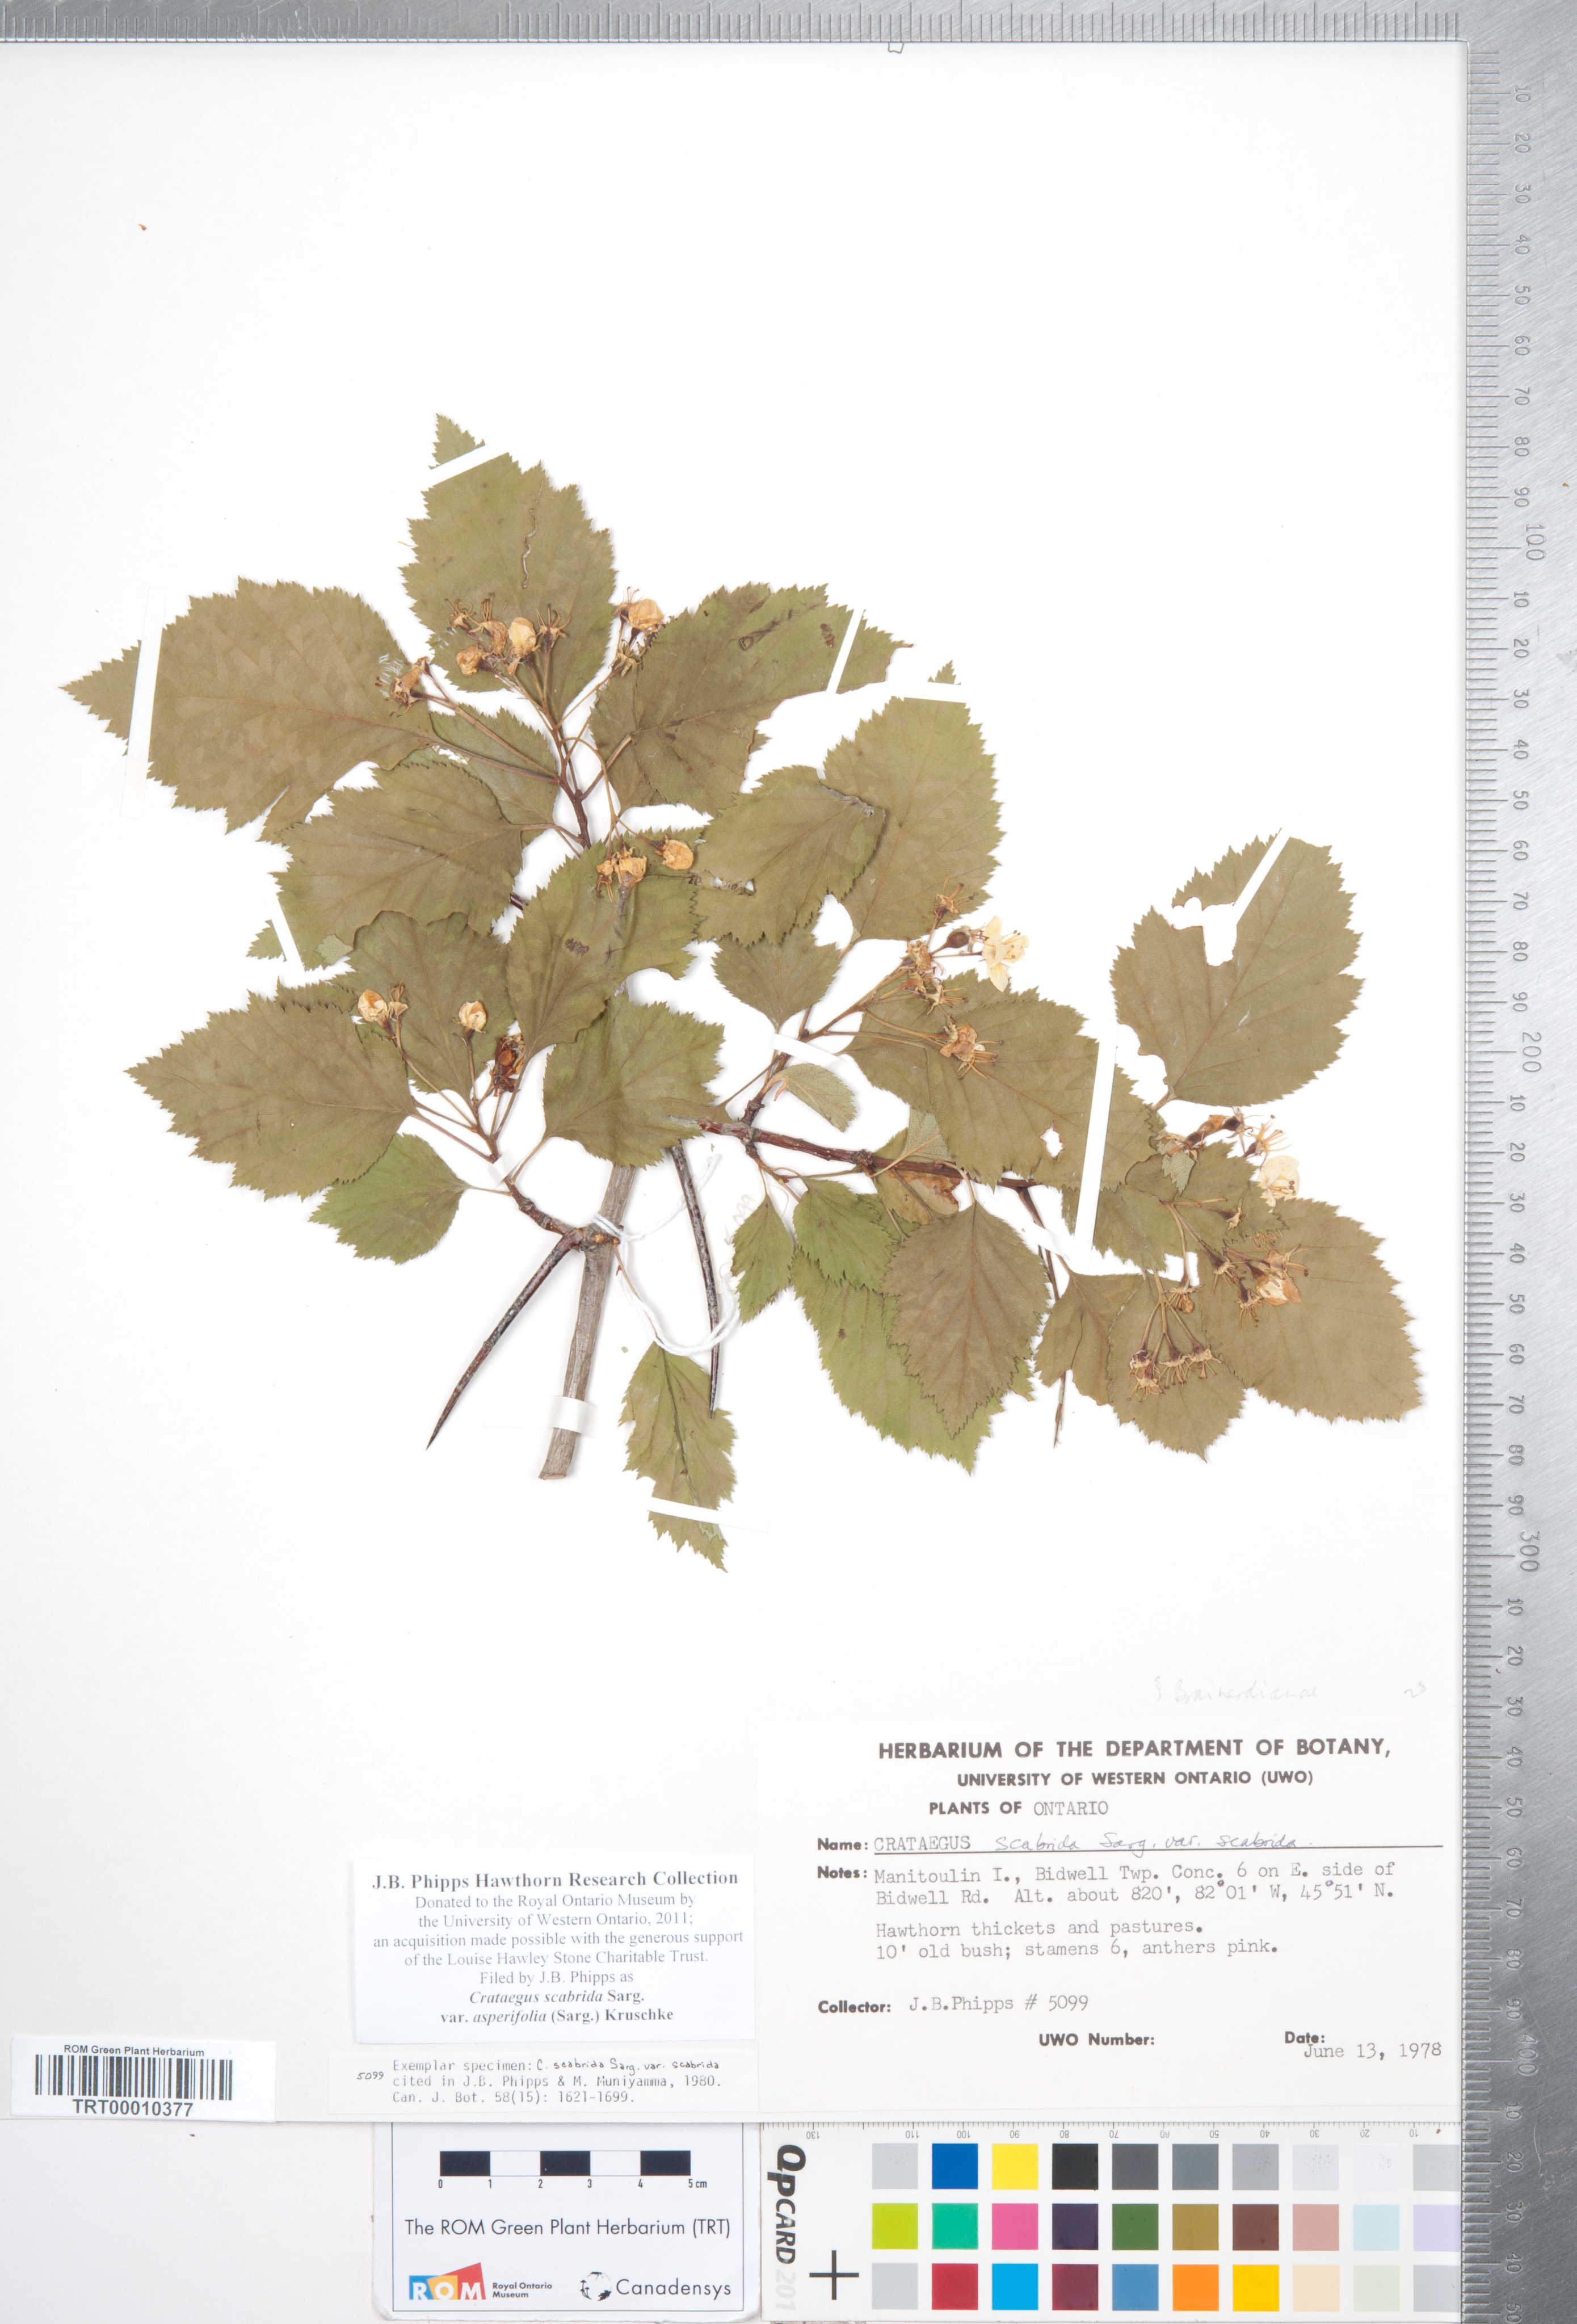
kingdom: Plantae
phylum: Tracheophyta
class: Magnoliopsida
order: Rosales
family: Rosaceae
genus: Crataegus
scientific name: Crataegus scabrida
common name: Rough hawthorn
